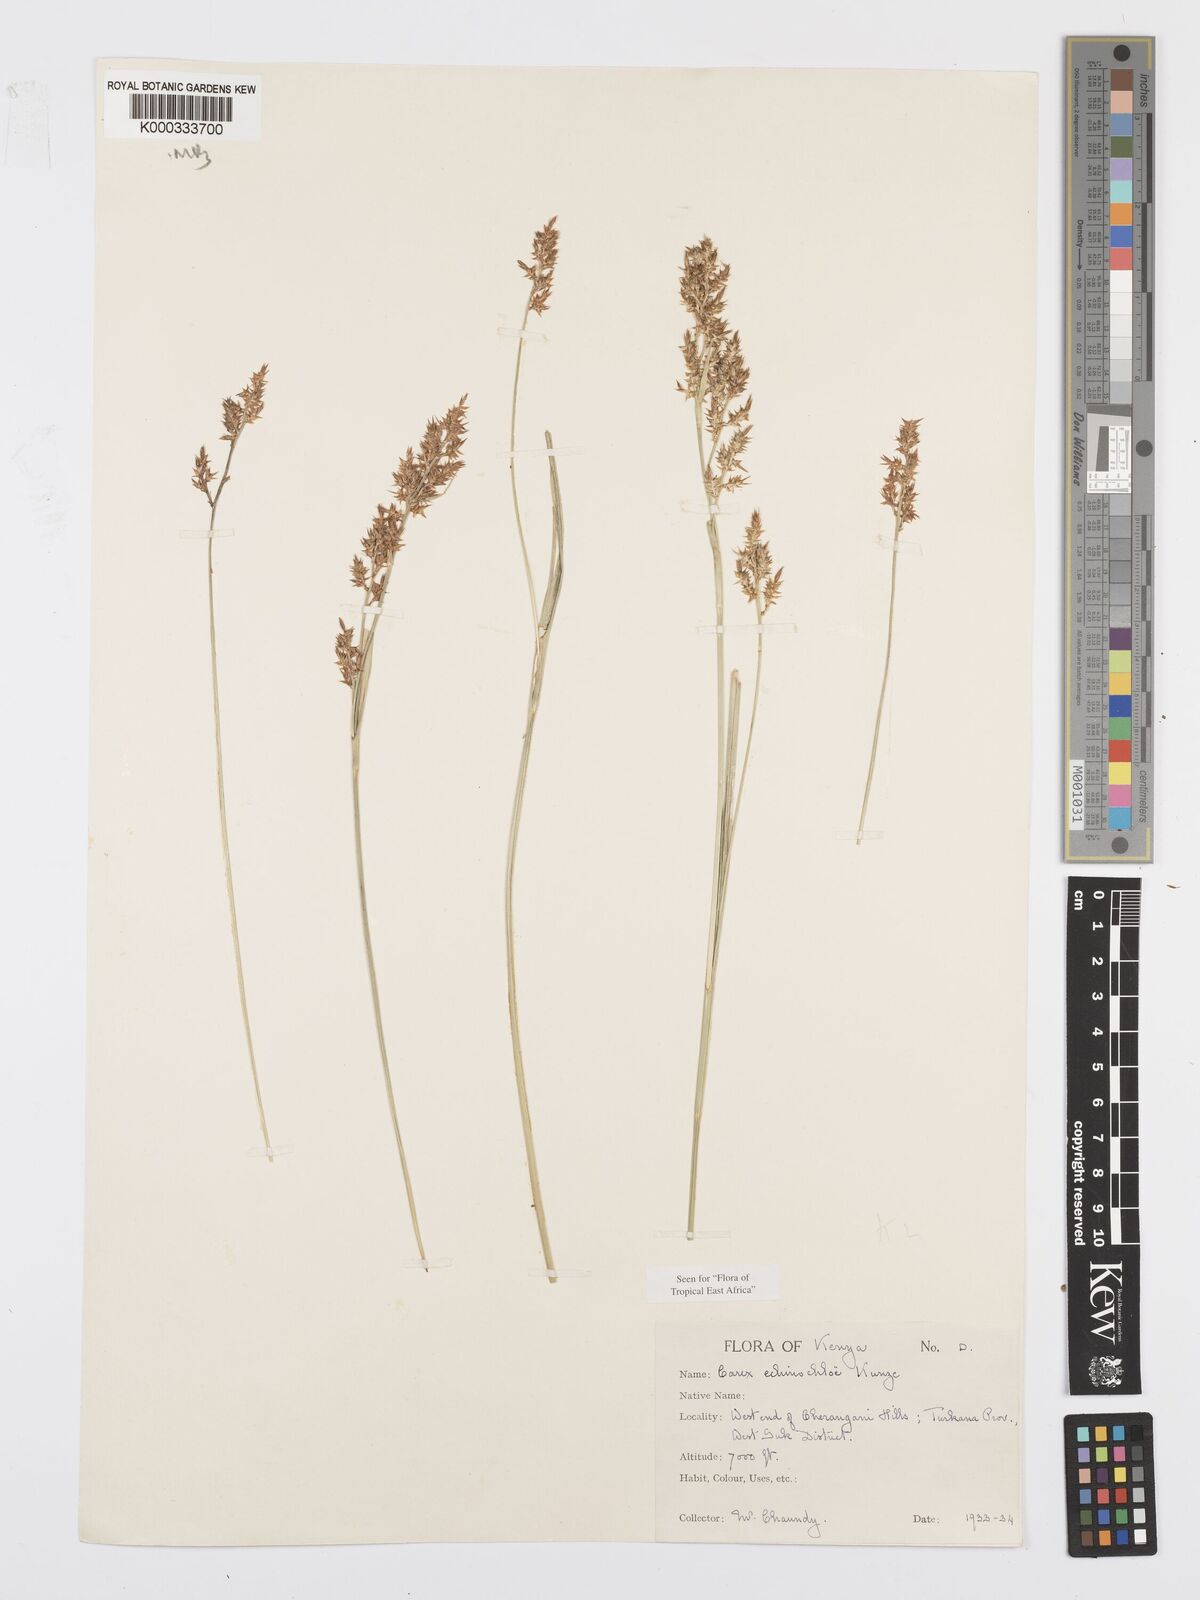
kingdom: Plantae
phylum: Tracheophyta
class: Liliopsida
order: Poales
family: Cyperaceae
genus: Carex
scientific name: Carex echinochloe
